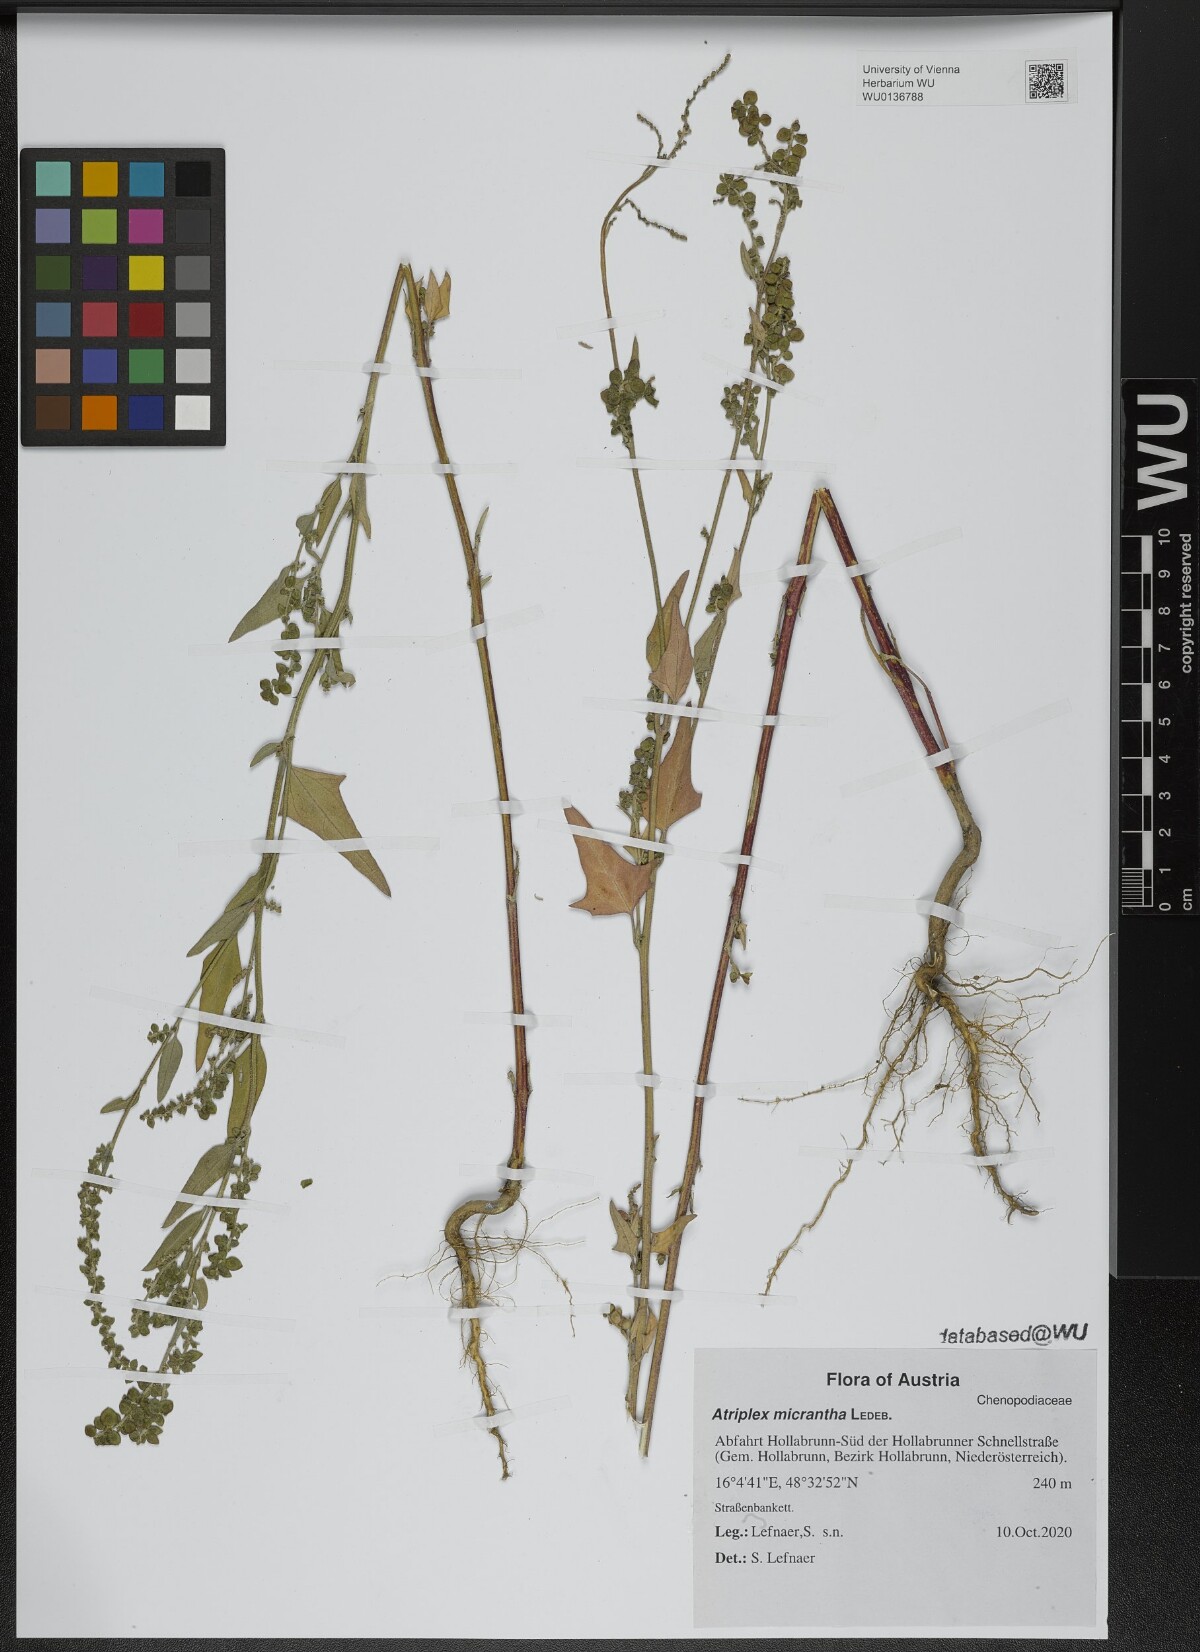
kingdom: Plantae
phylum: Tracheophyta
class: Magnoliopsida
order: Caryophyllales
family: Amaranthaceae
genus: Atriplex
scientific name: Atriplex micrantha
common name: Twoscale saltbush
